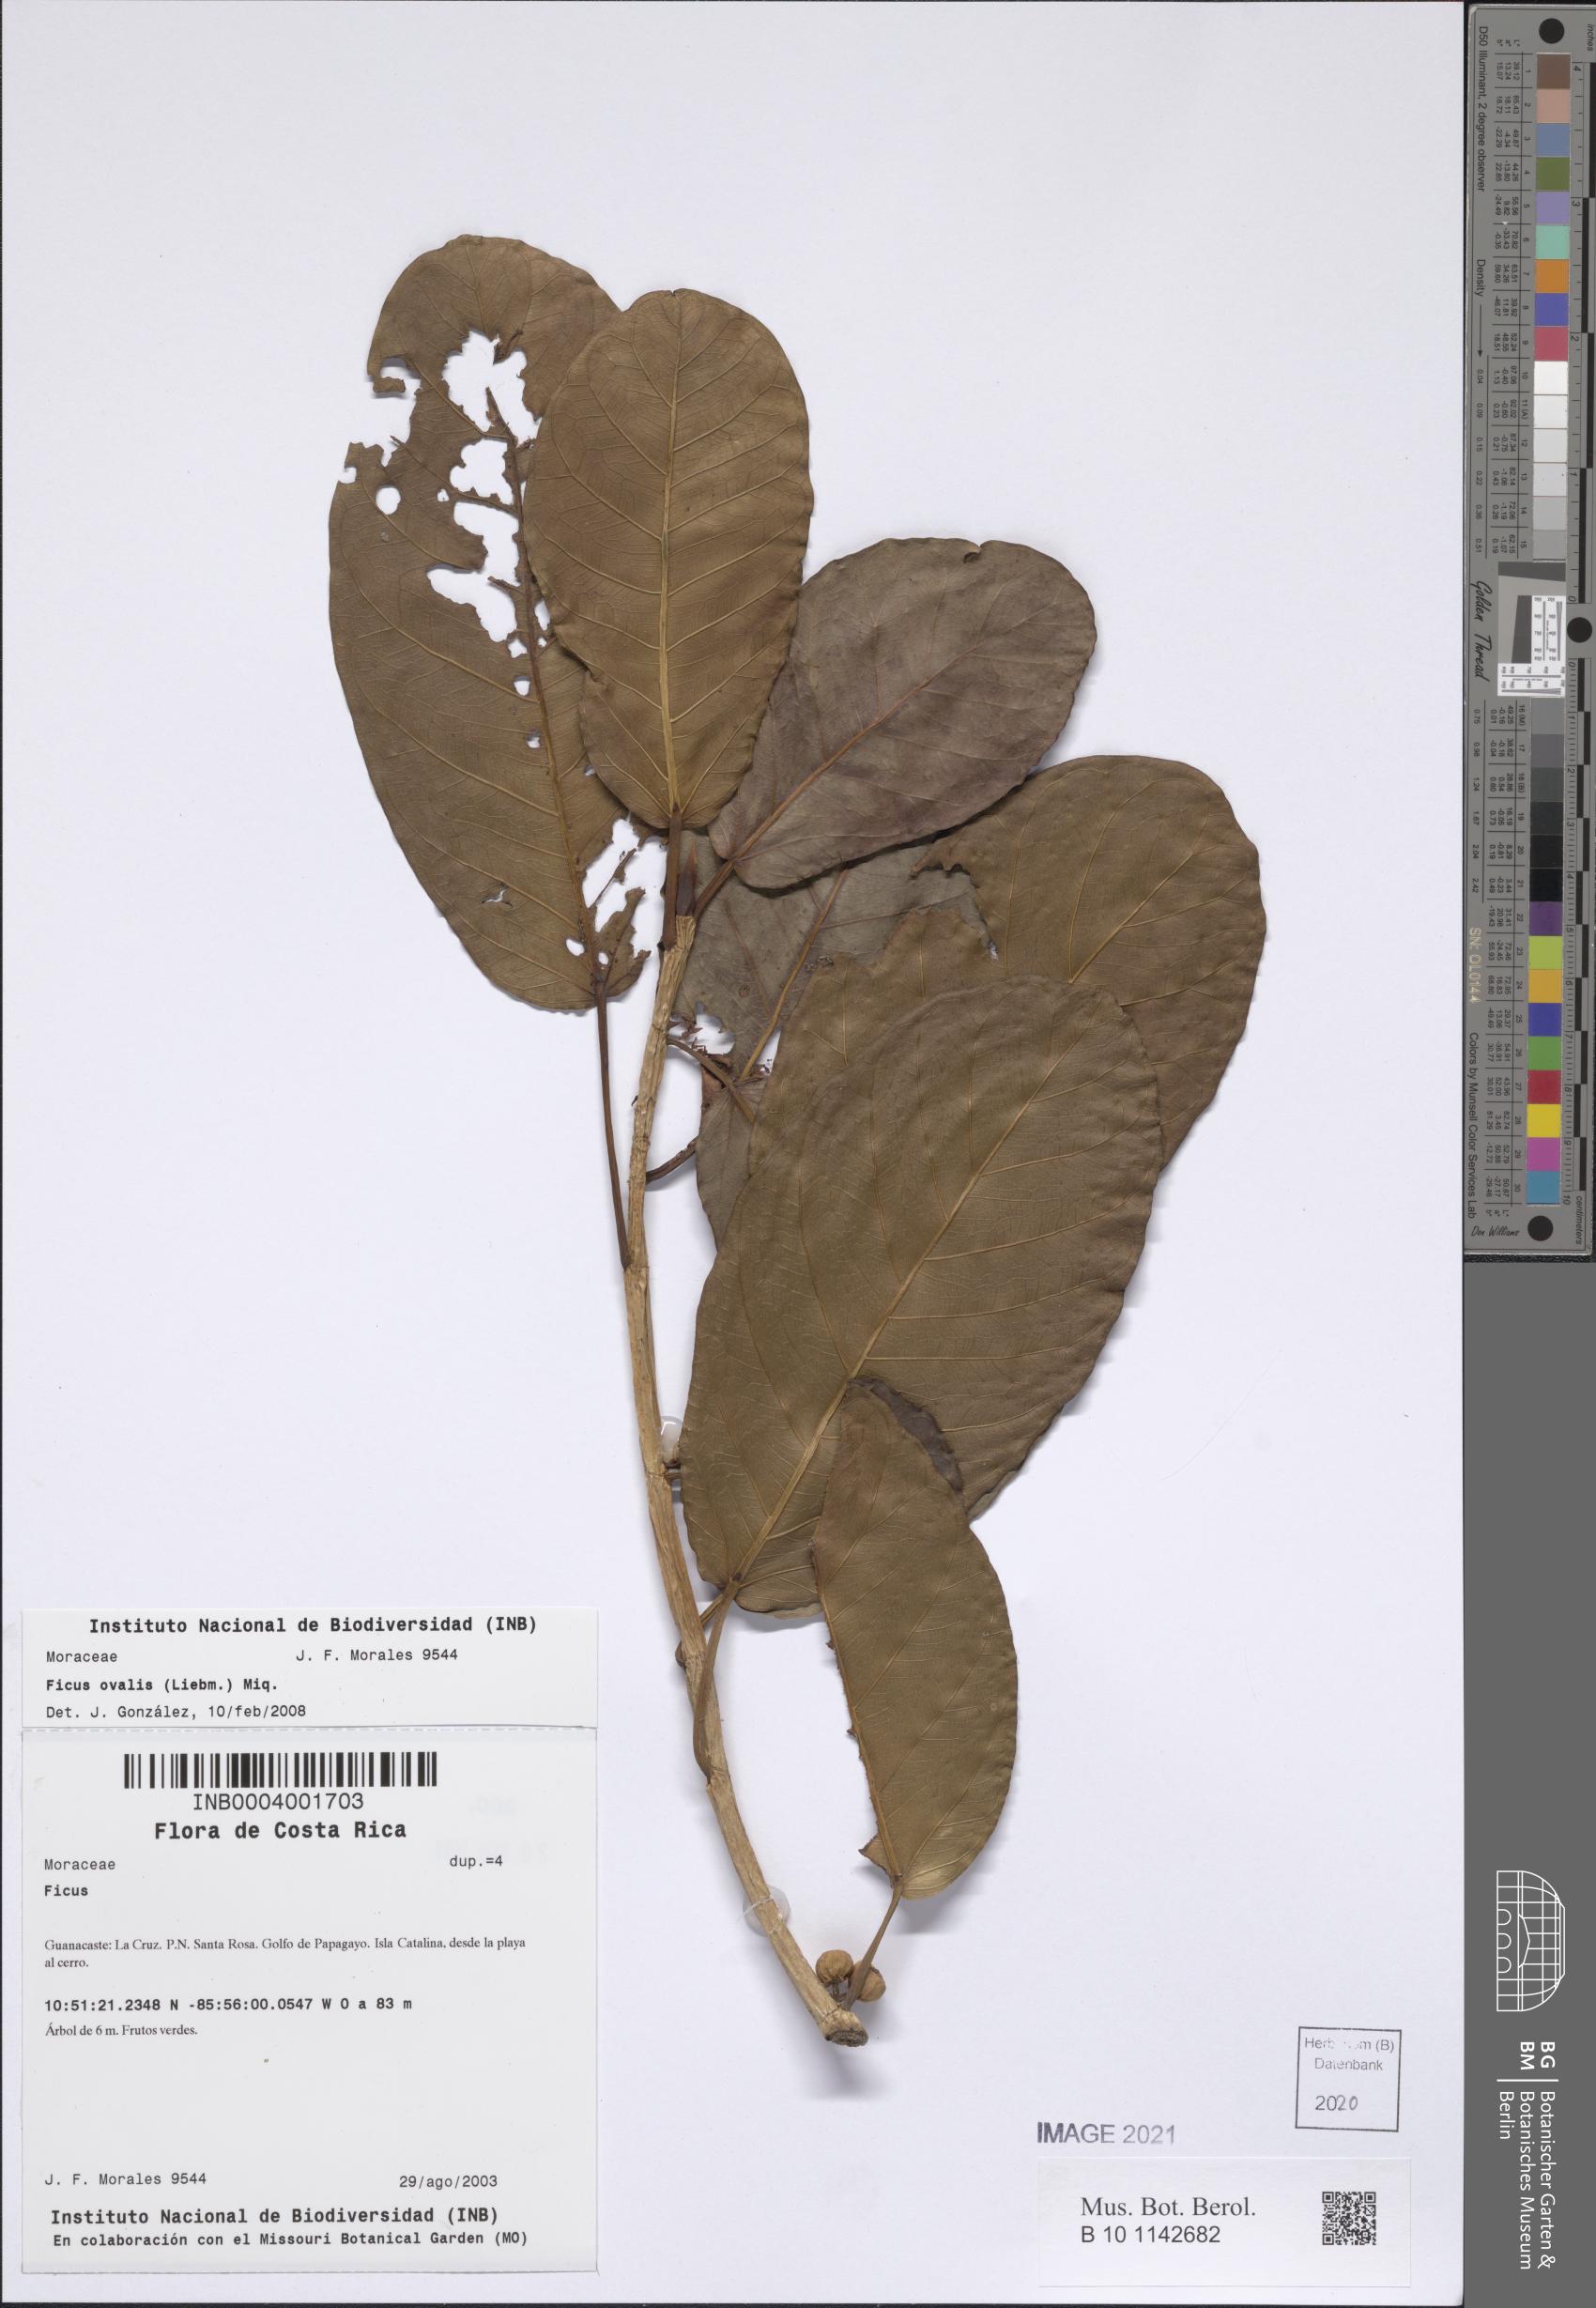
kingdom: Plantae
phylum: Tracheophyta
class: Magnoliopsida
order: Rosales
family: Moraceae
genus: Ficus
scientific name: Ficus crassinervia
